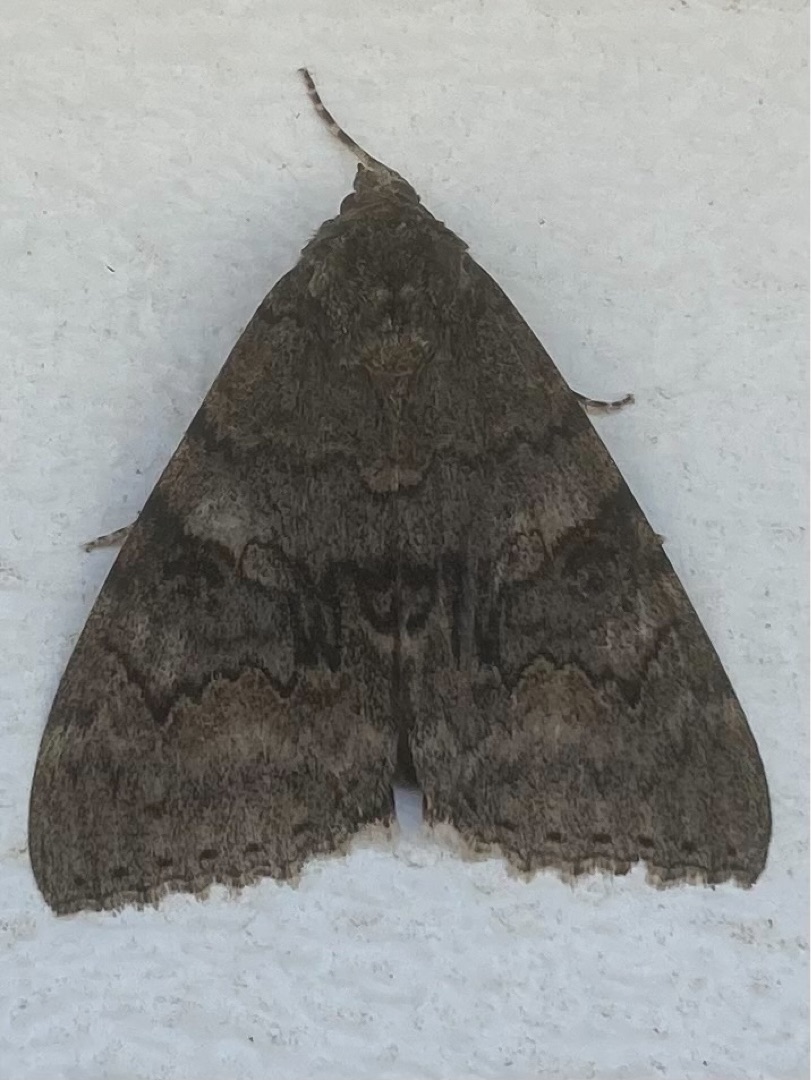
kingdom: Animalia
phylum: Arthropoda
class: Insecta
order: Lepidoptera
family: Erebidae
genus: Catocala
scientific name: Catocala nupta
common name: Rødt ordensbånd
